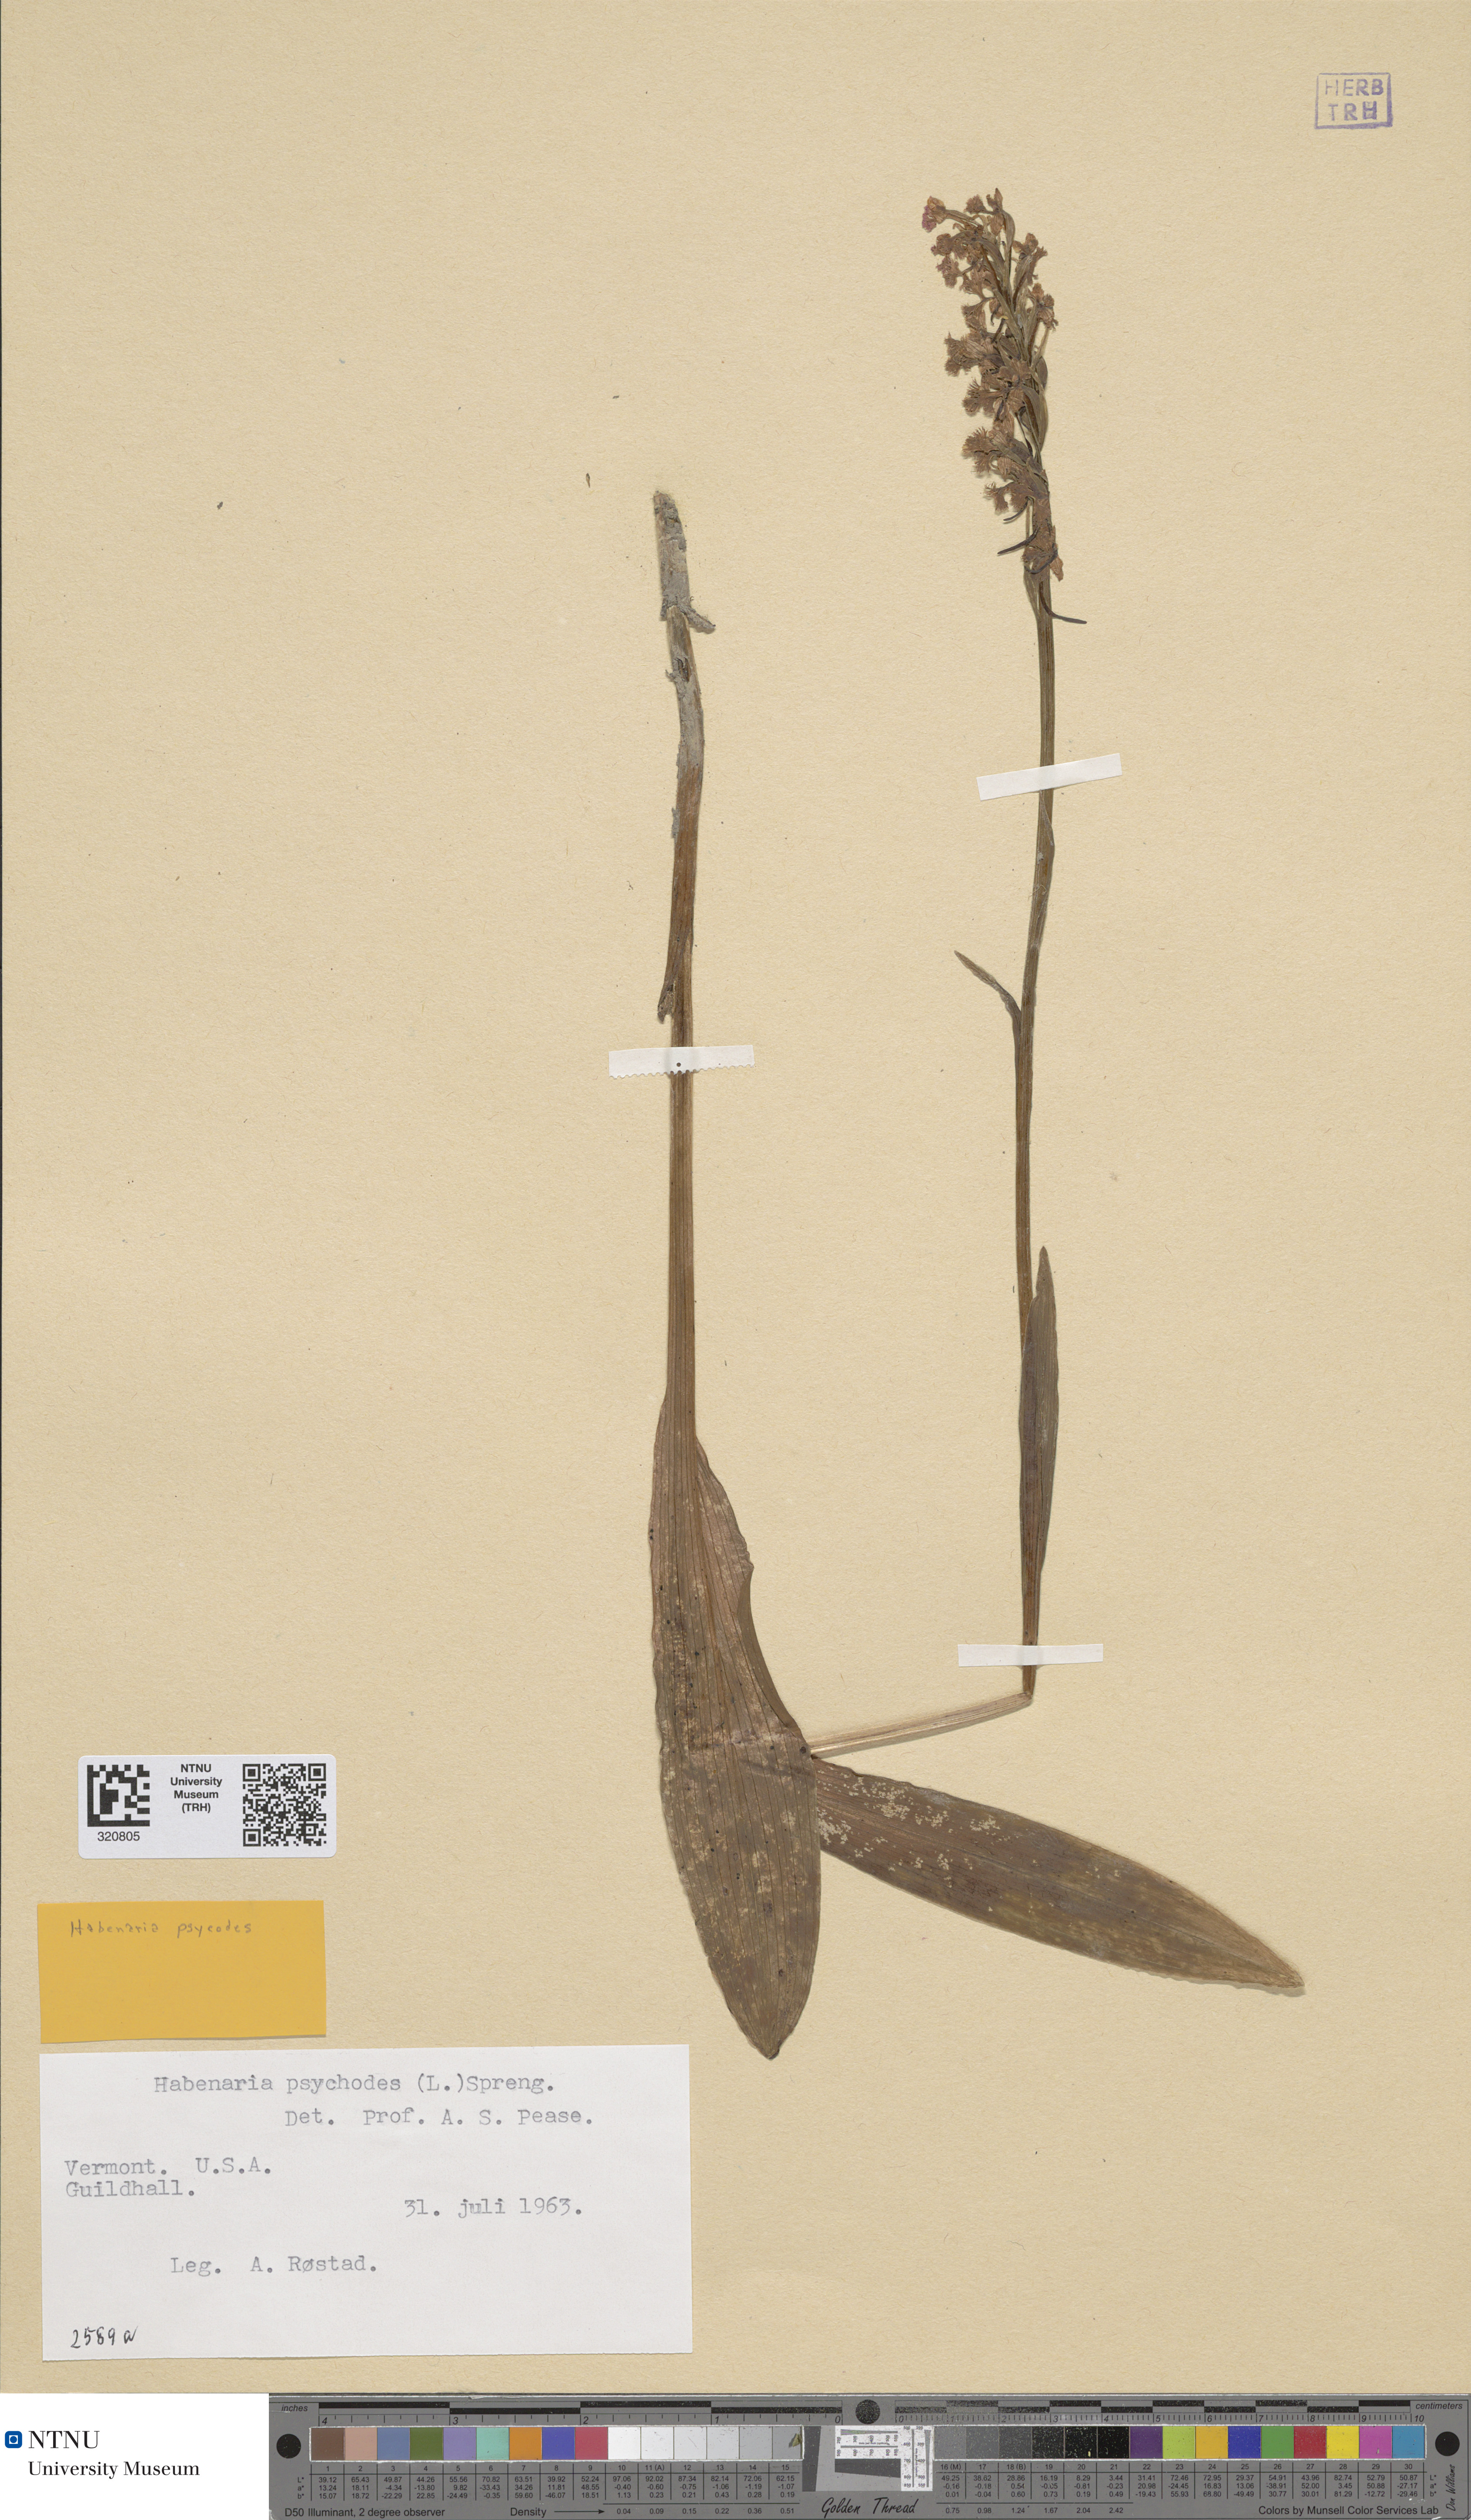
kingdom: Plantae
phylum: Tracheophyta
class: Liliopsida
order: Asparagales
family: Orchidaceae
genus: Platanthera
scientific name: Platanthera psycodes
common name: Lesser purple fringed orchid
